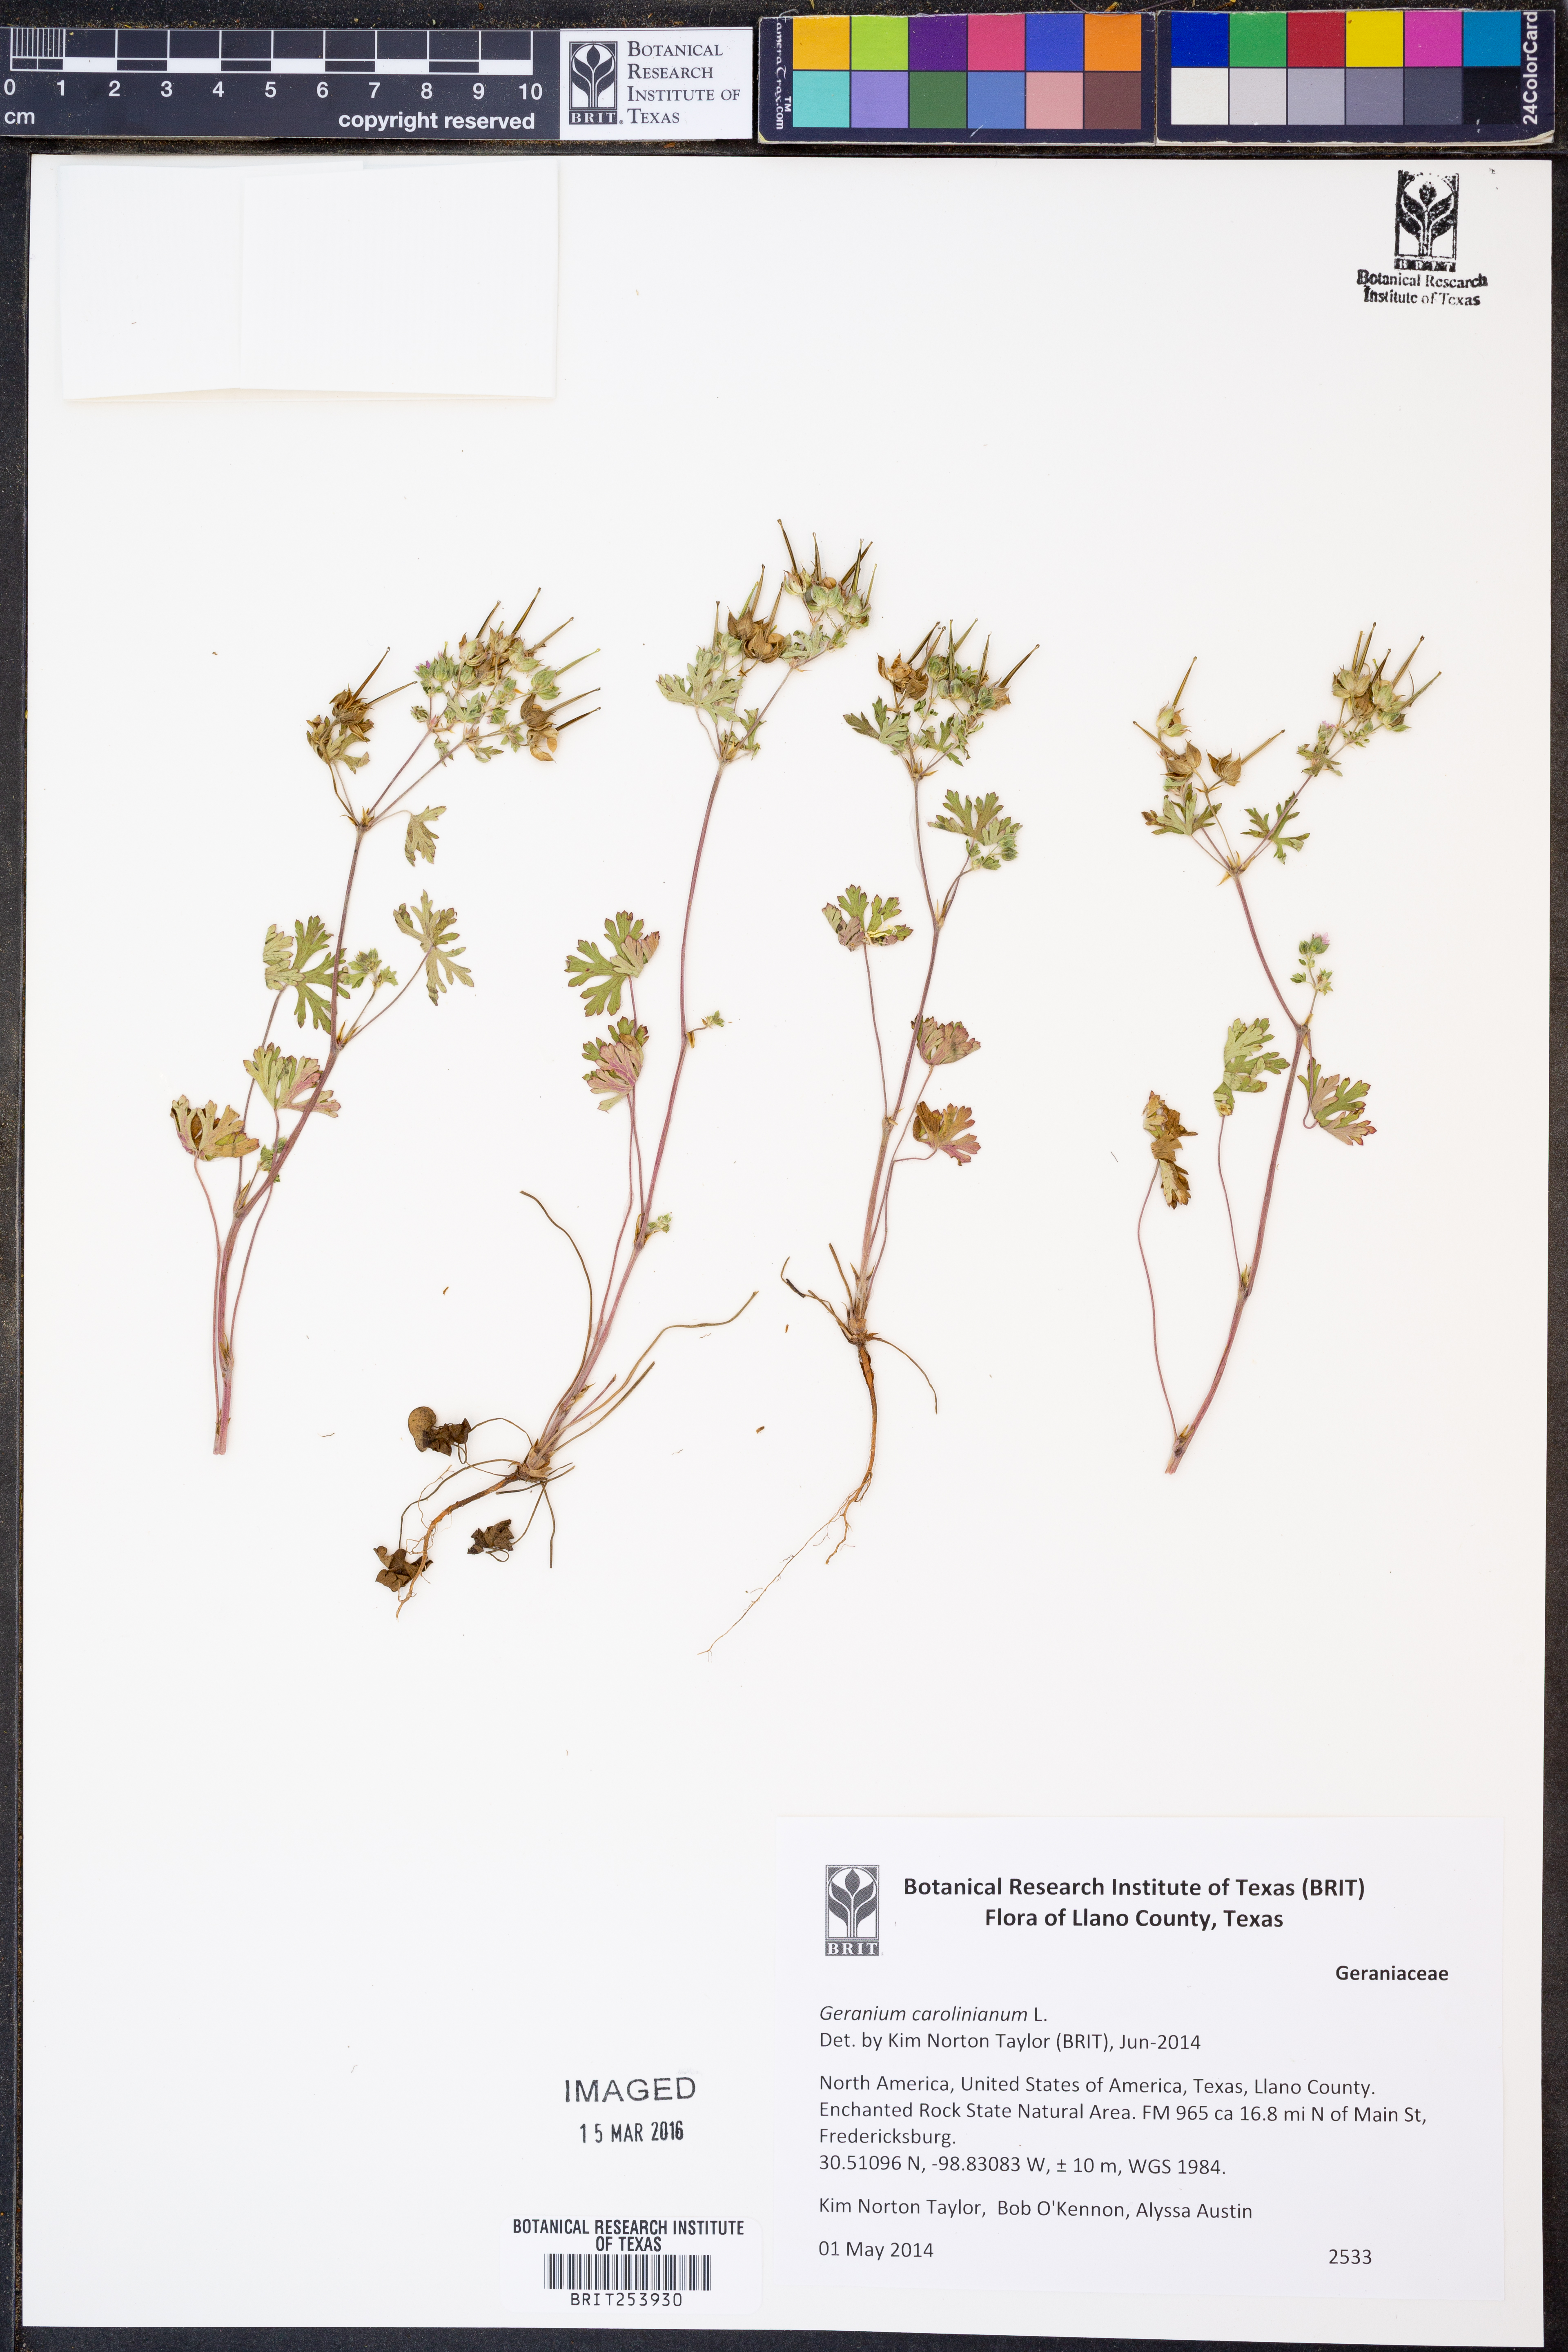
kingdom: Plantae
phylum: Tracheophyta
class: Magnoliopsida
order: Geraniales
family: Geraniaceae
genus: Geranium
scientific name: Geranium carolinianum
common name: Carolina crane's-bill
